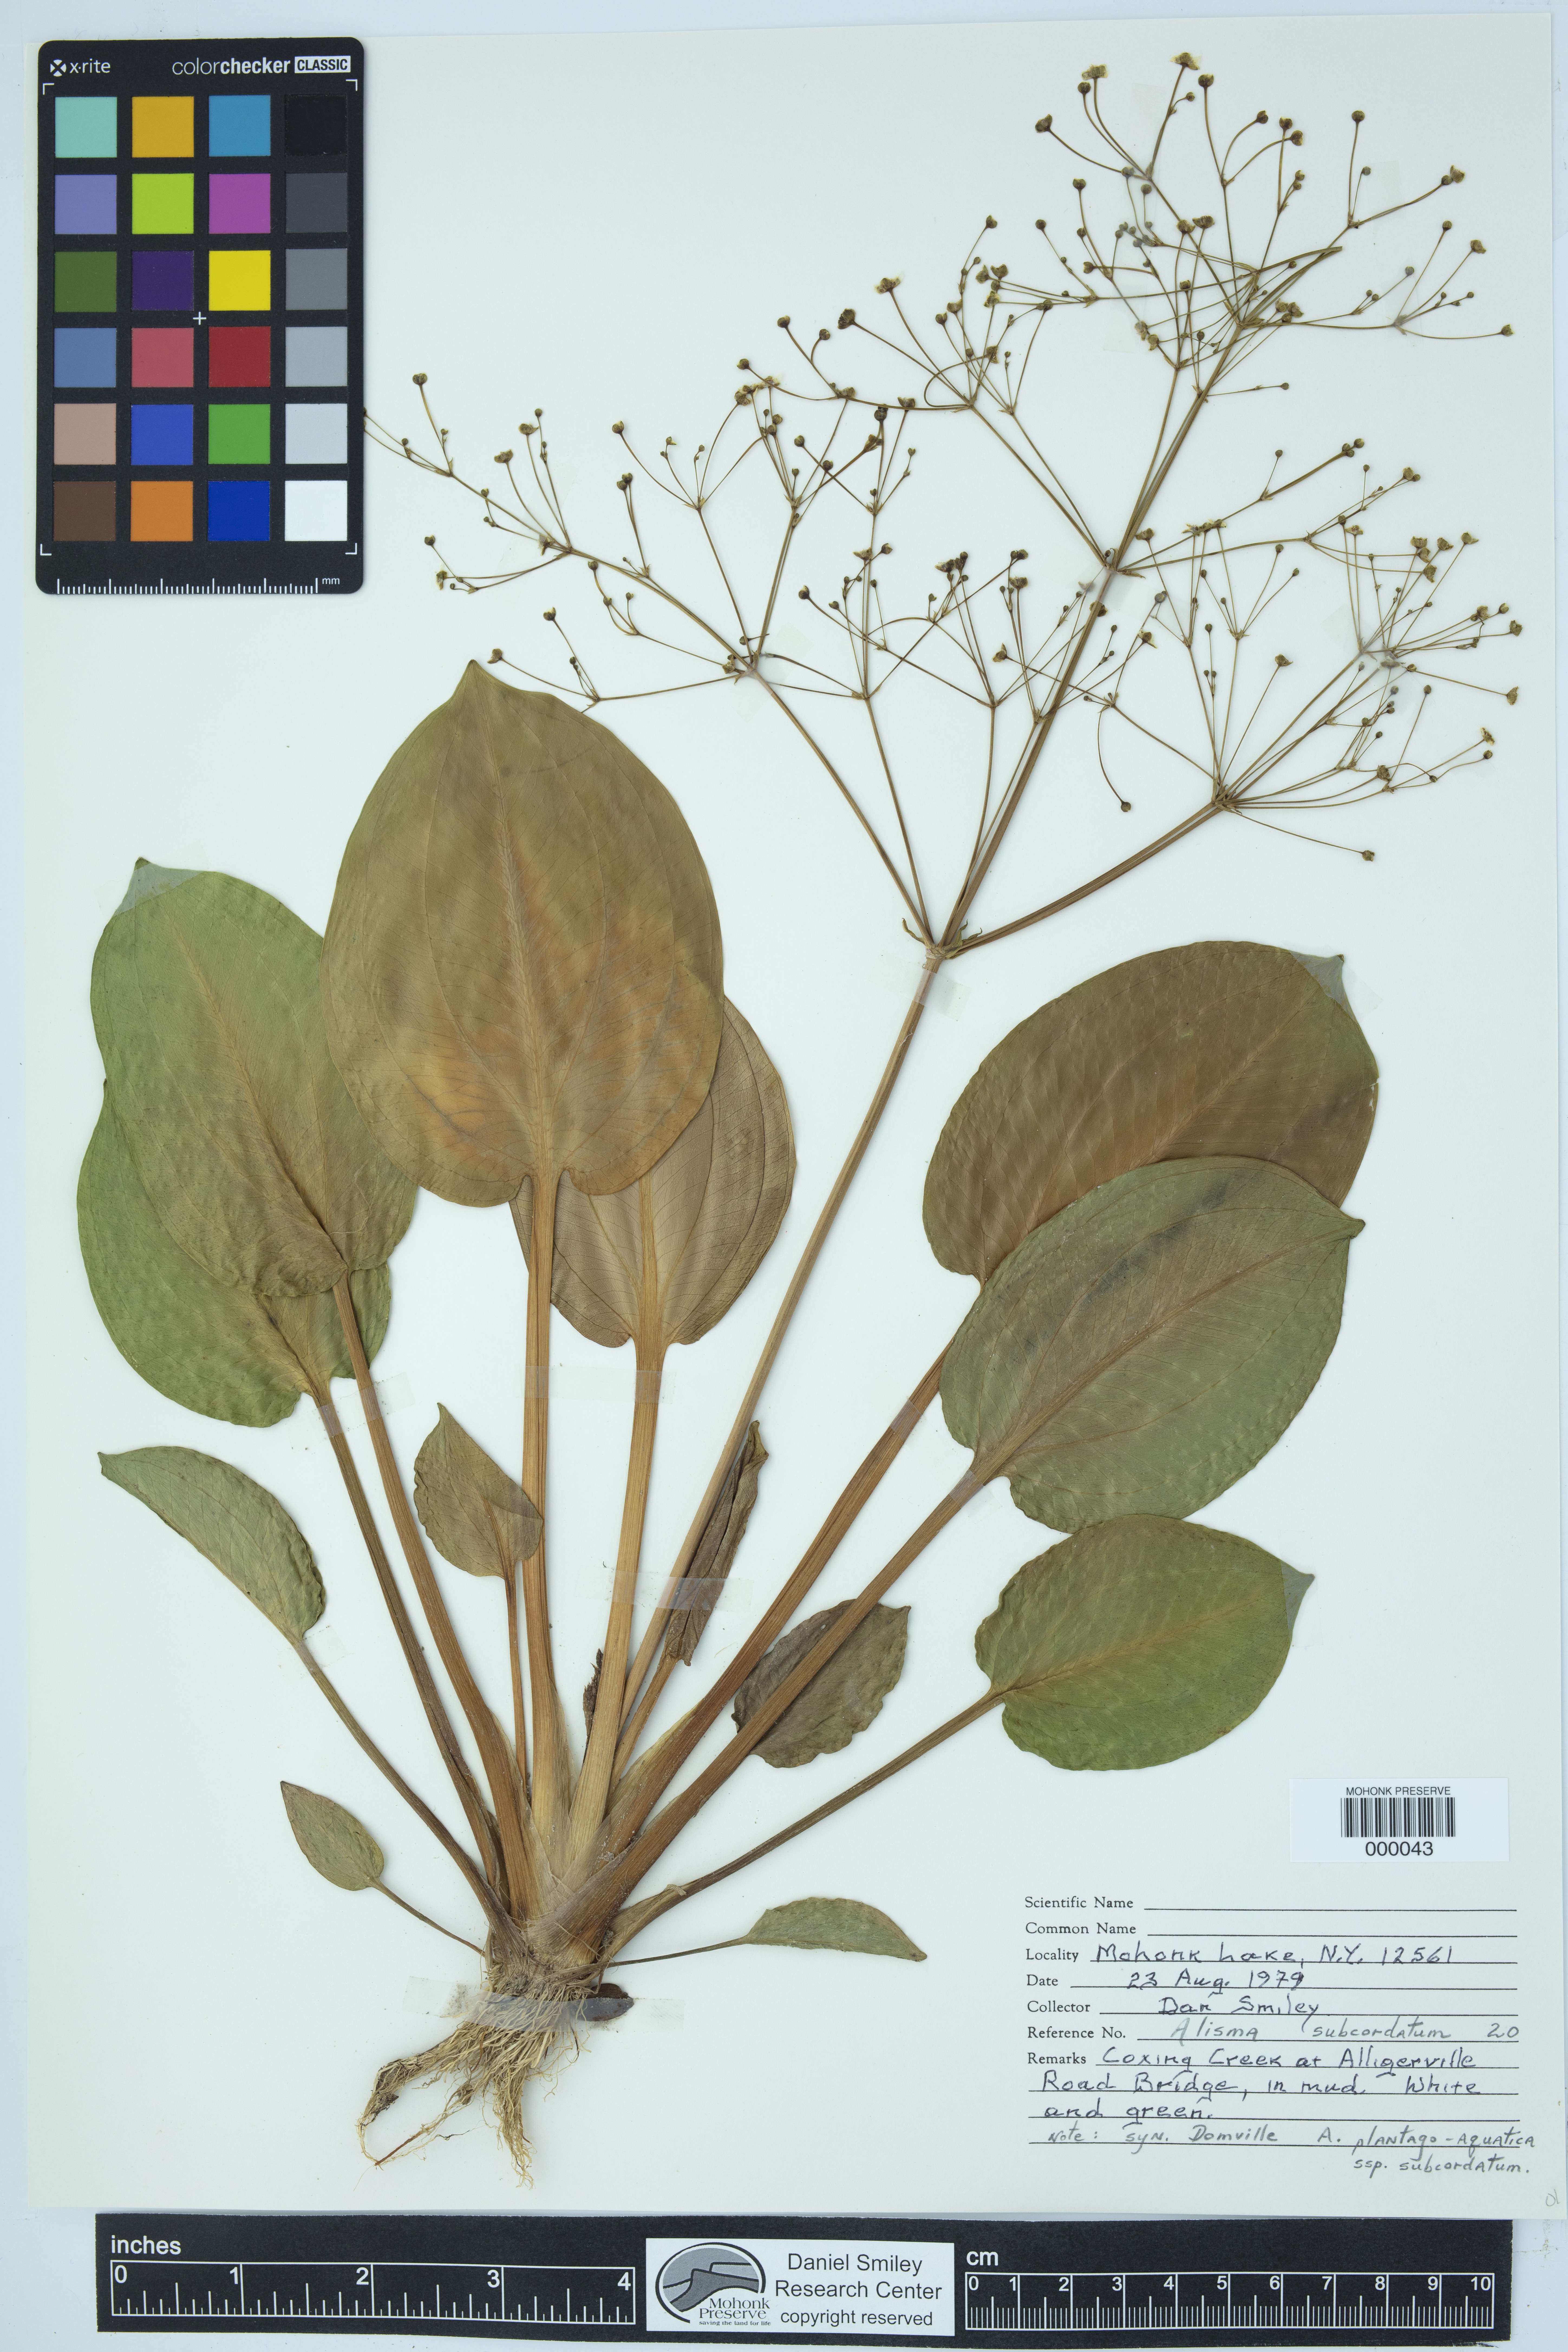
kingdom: Plantae
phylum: Tracheophyta
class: Liliopsida
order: Alismatales
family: Alismataceae
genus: Alisma
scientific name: Alisma triviale
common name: Northern water-plantain
